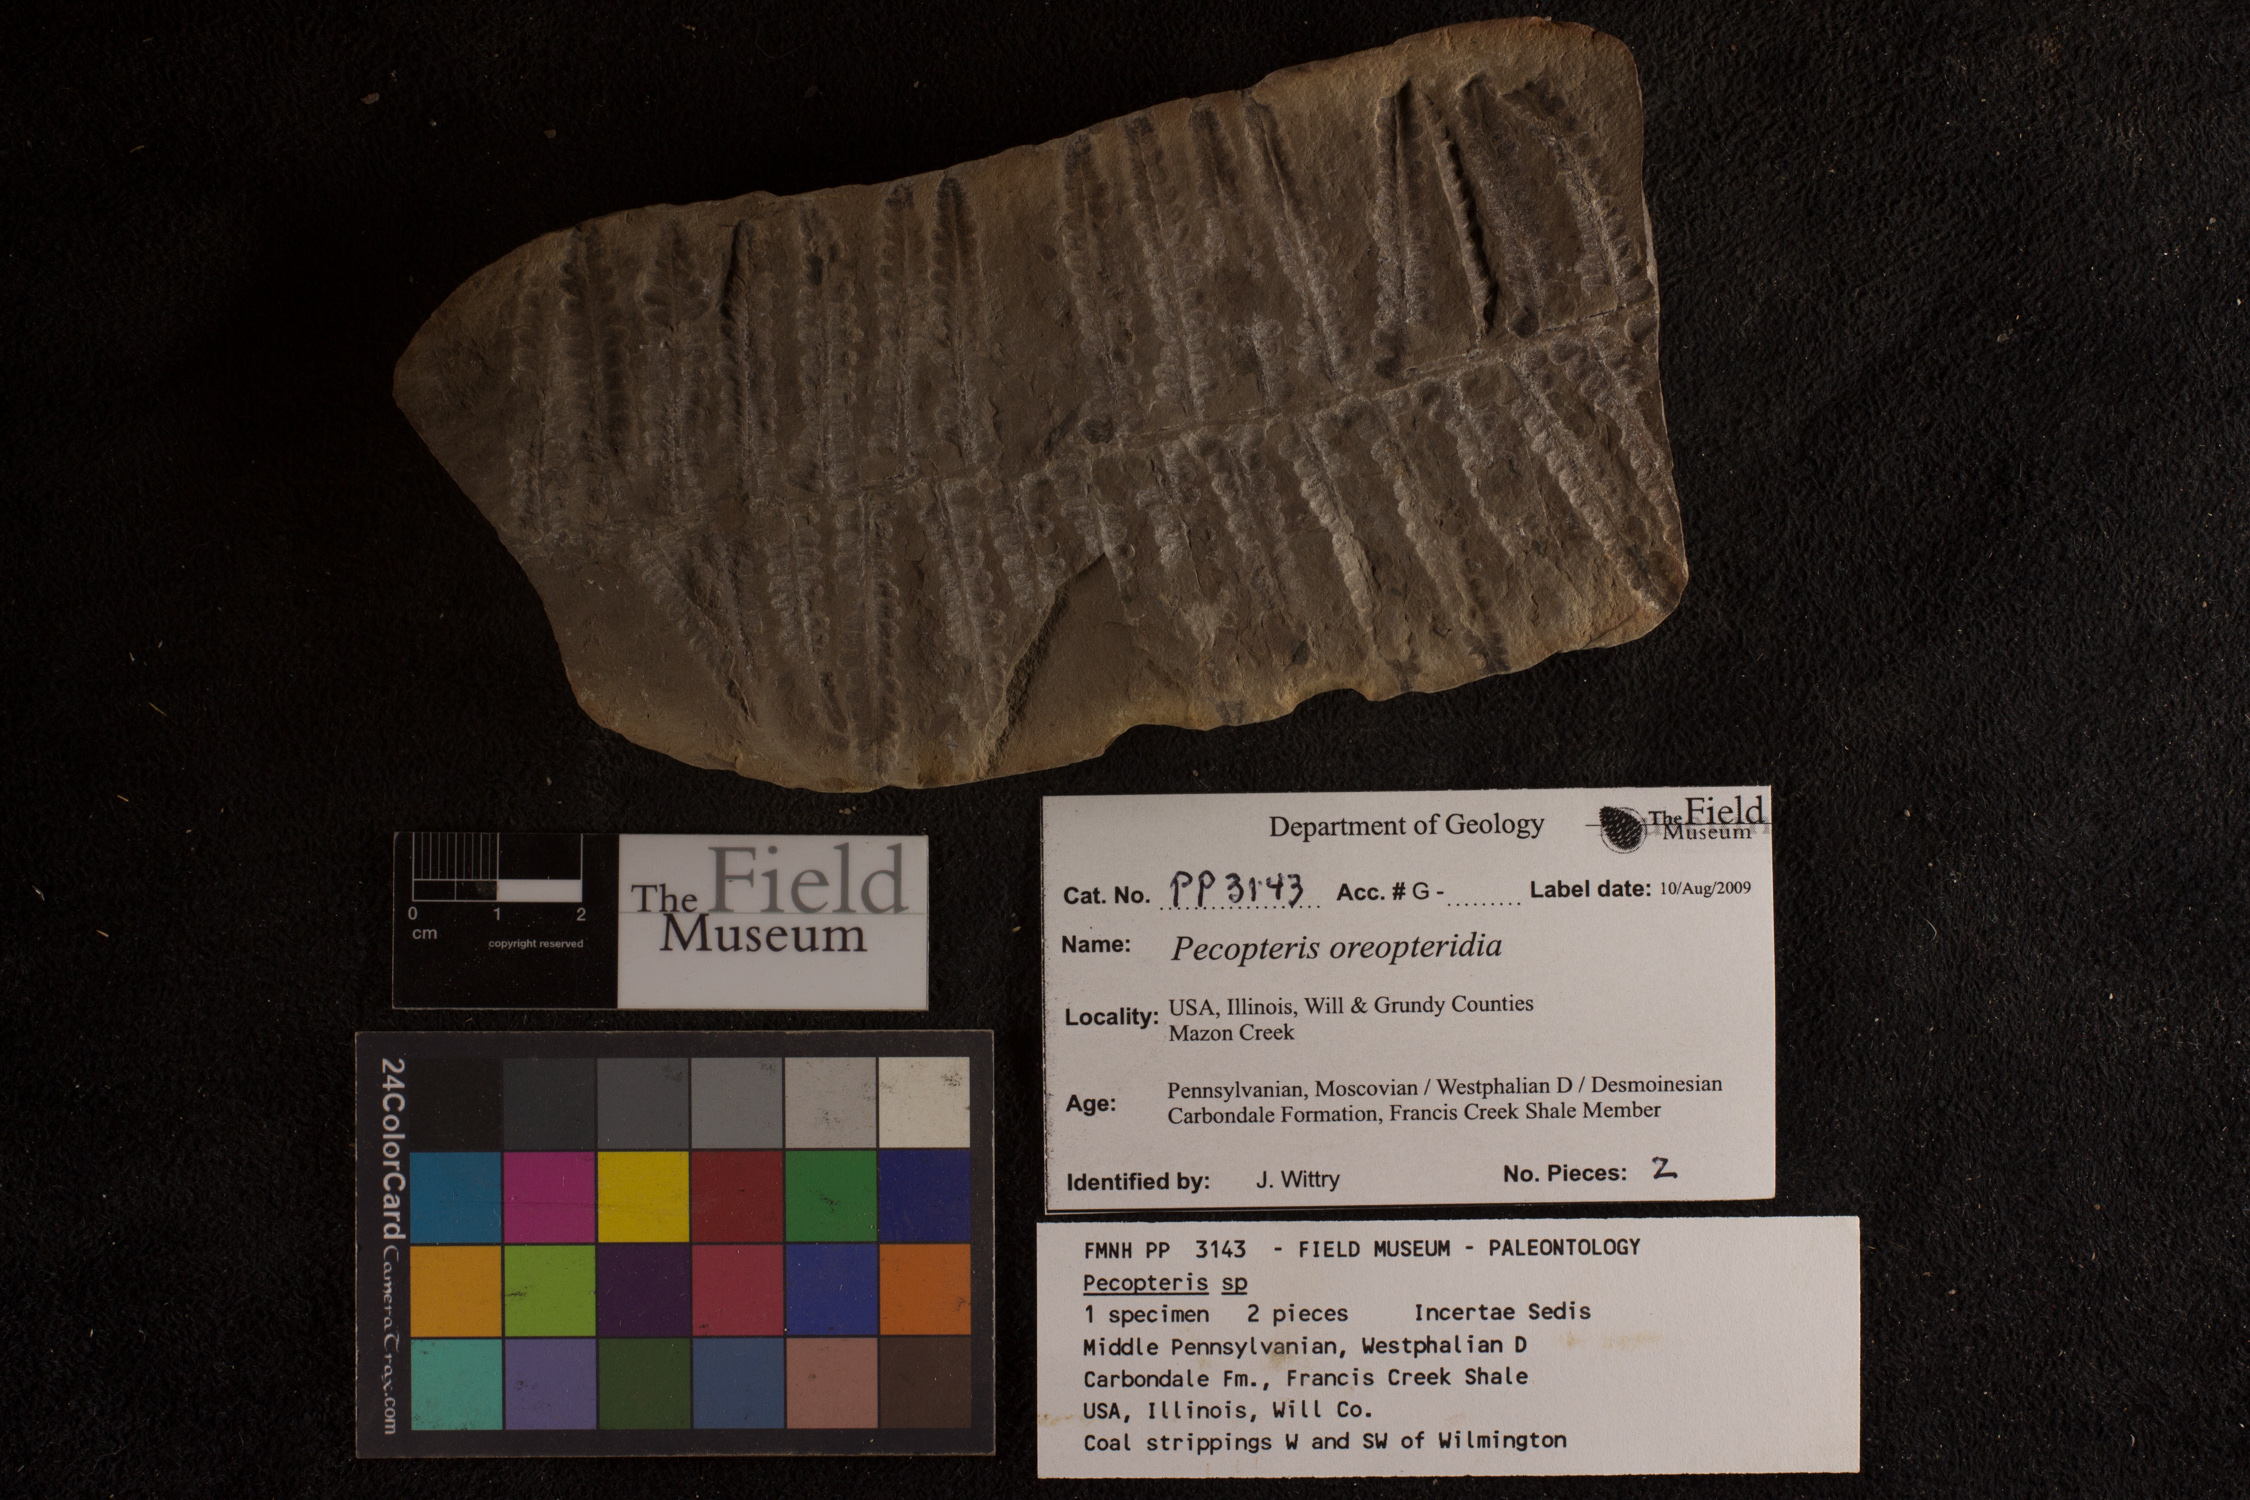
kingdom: Plantae
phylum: Tracheophyta
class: Polypodiopsida
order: Marattiales
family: Asterothecaceae
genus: Pecopteris
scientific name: Pecopteris
